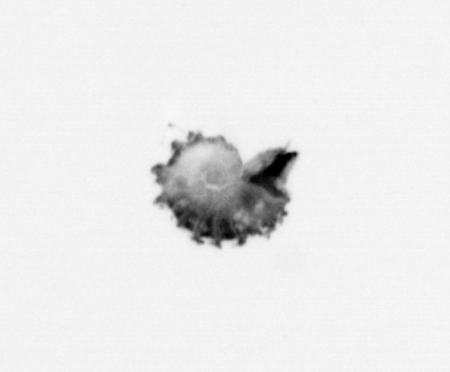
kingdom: Animalia
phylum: Mollusca
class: Gastropoda
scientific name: Gastropoda
